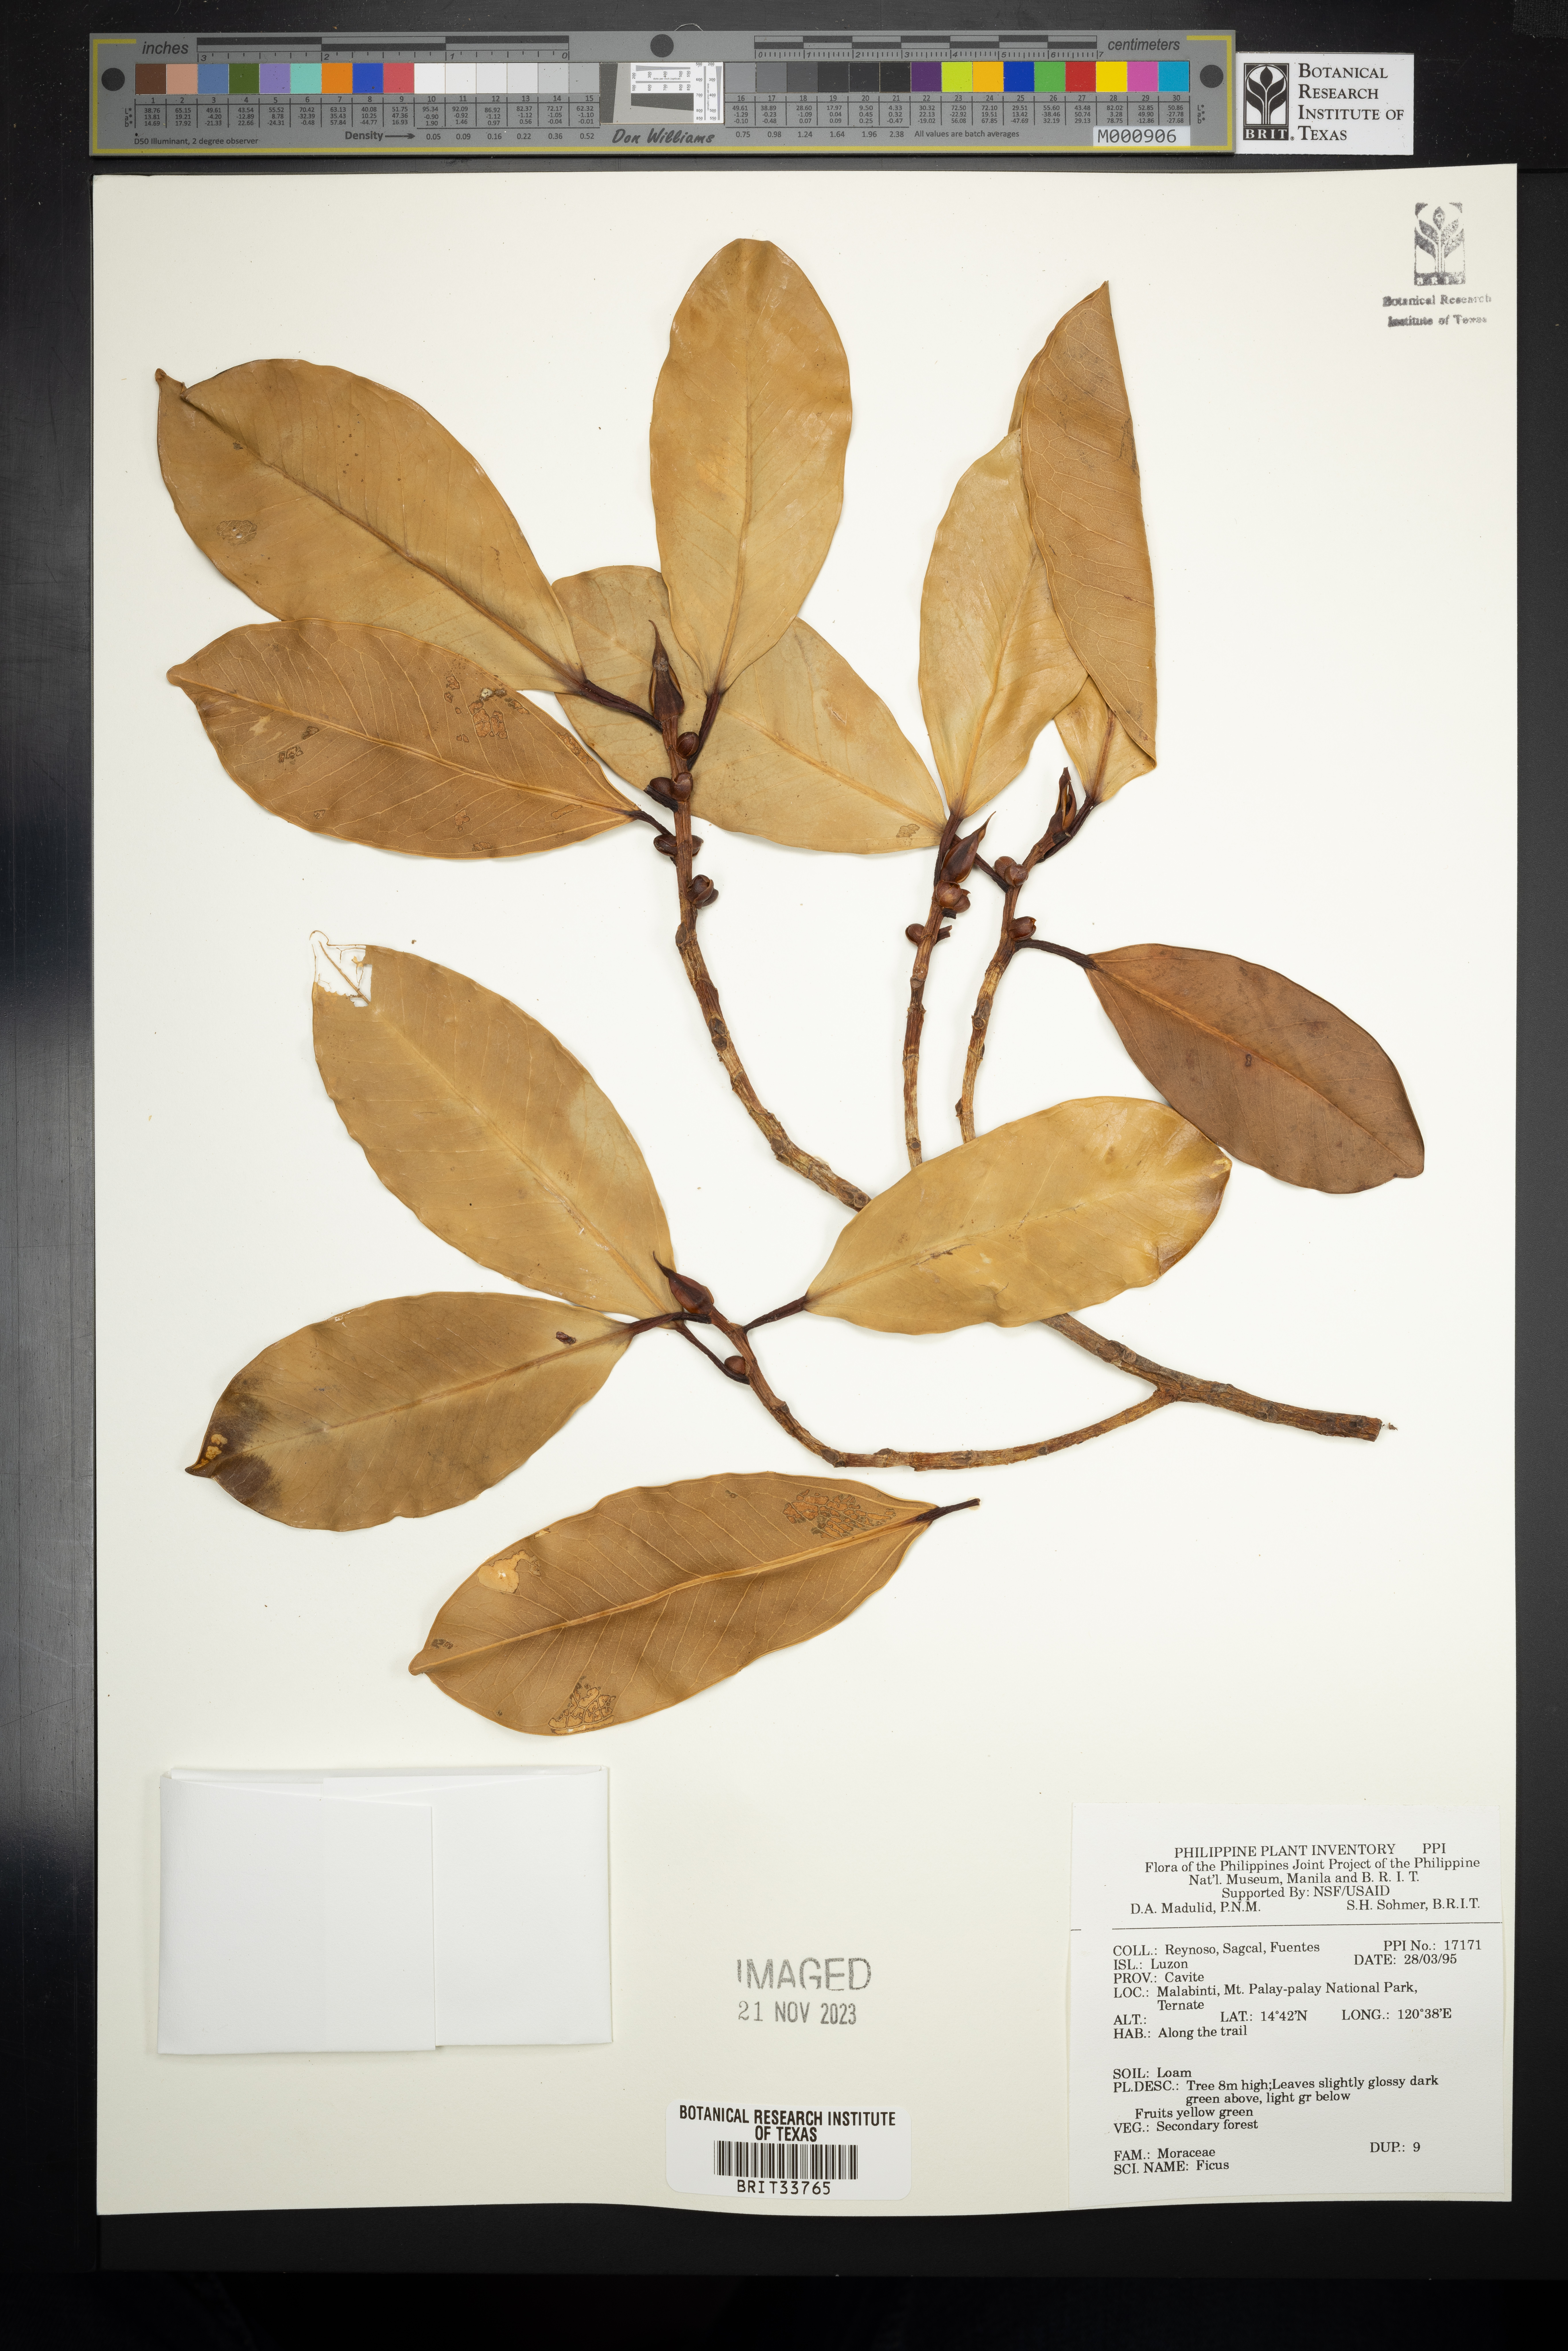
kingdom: Plantae
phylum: Tracheophyta
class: Magnoliopsida
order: Rosales
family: Moraceae
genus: Ficus
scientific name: Ficus
